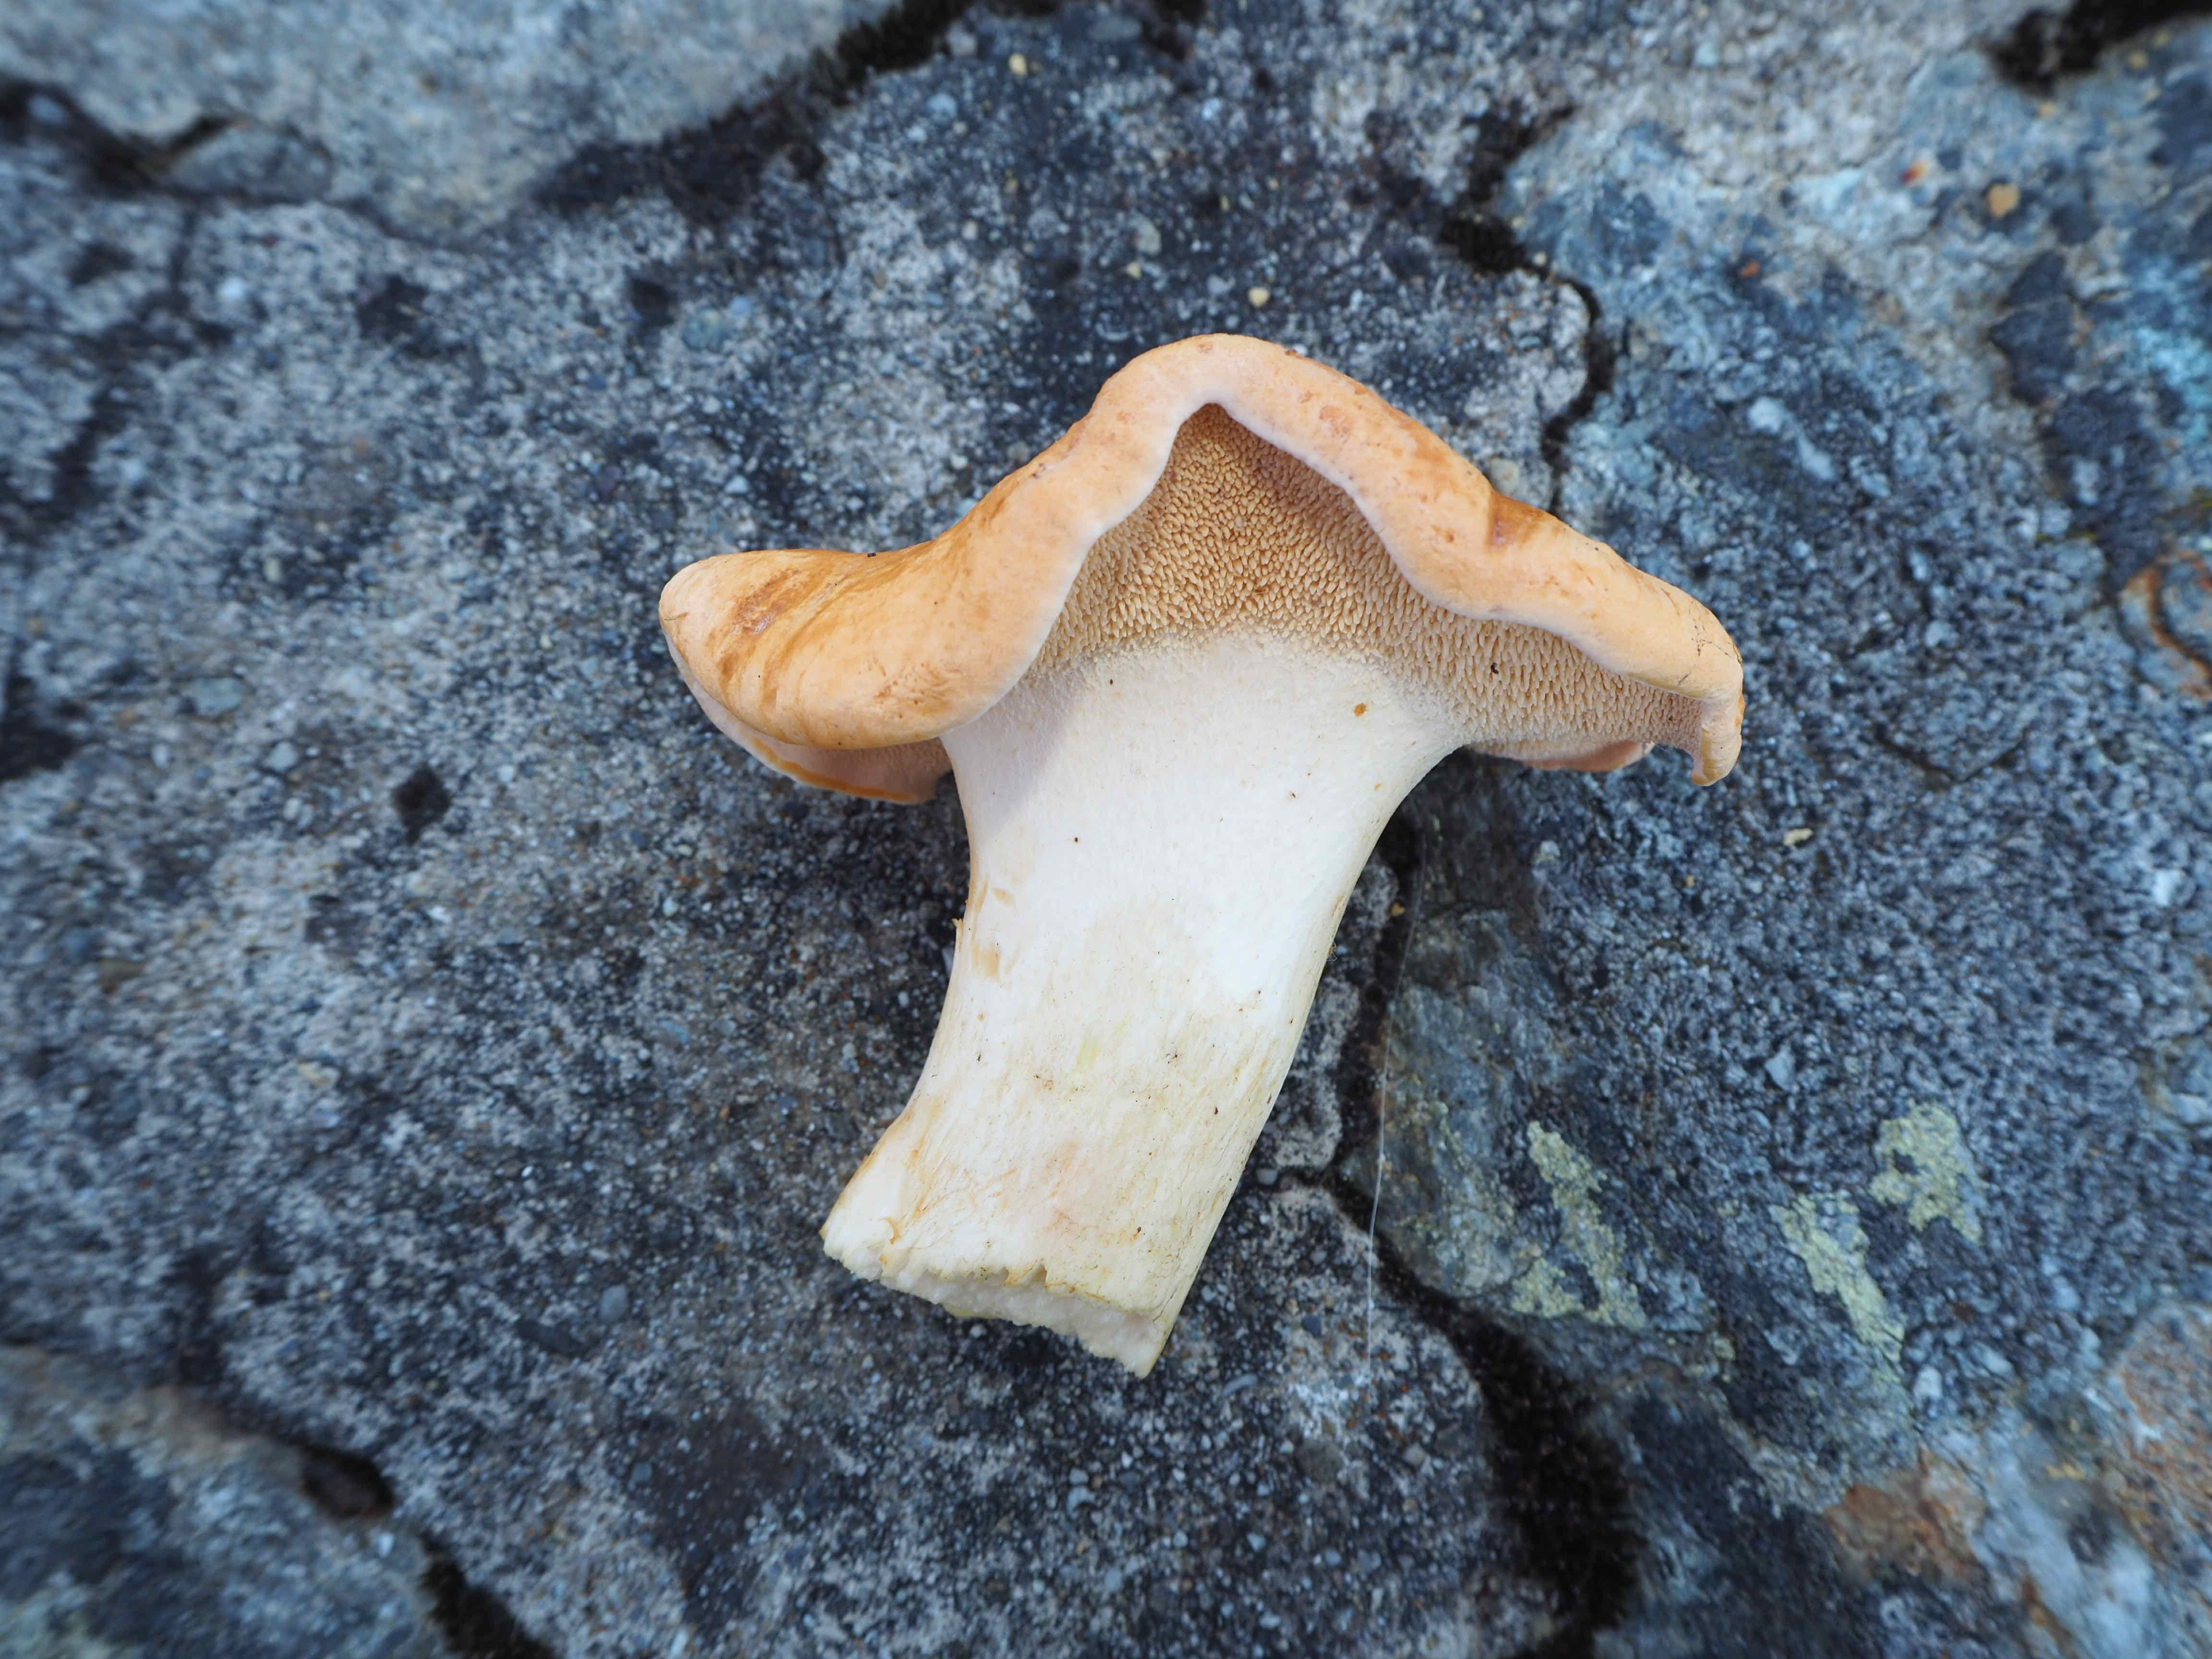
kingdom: Fungi
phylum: Basidiomycota
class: Agaricomycetes
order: Cantharellales
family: Hydnaceae
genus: Hydnum
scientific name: Hydnum
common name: pigsvamp
